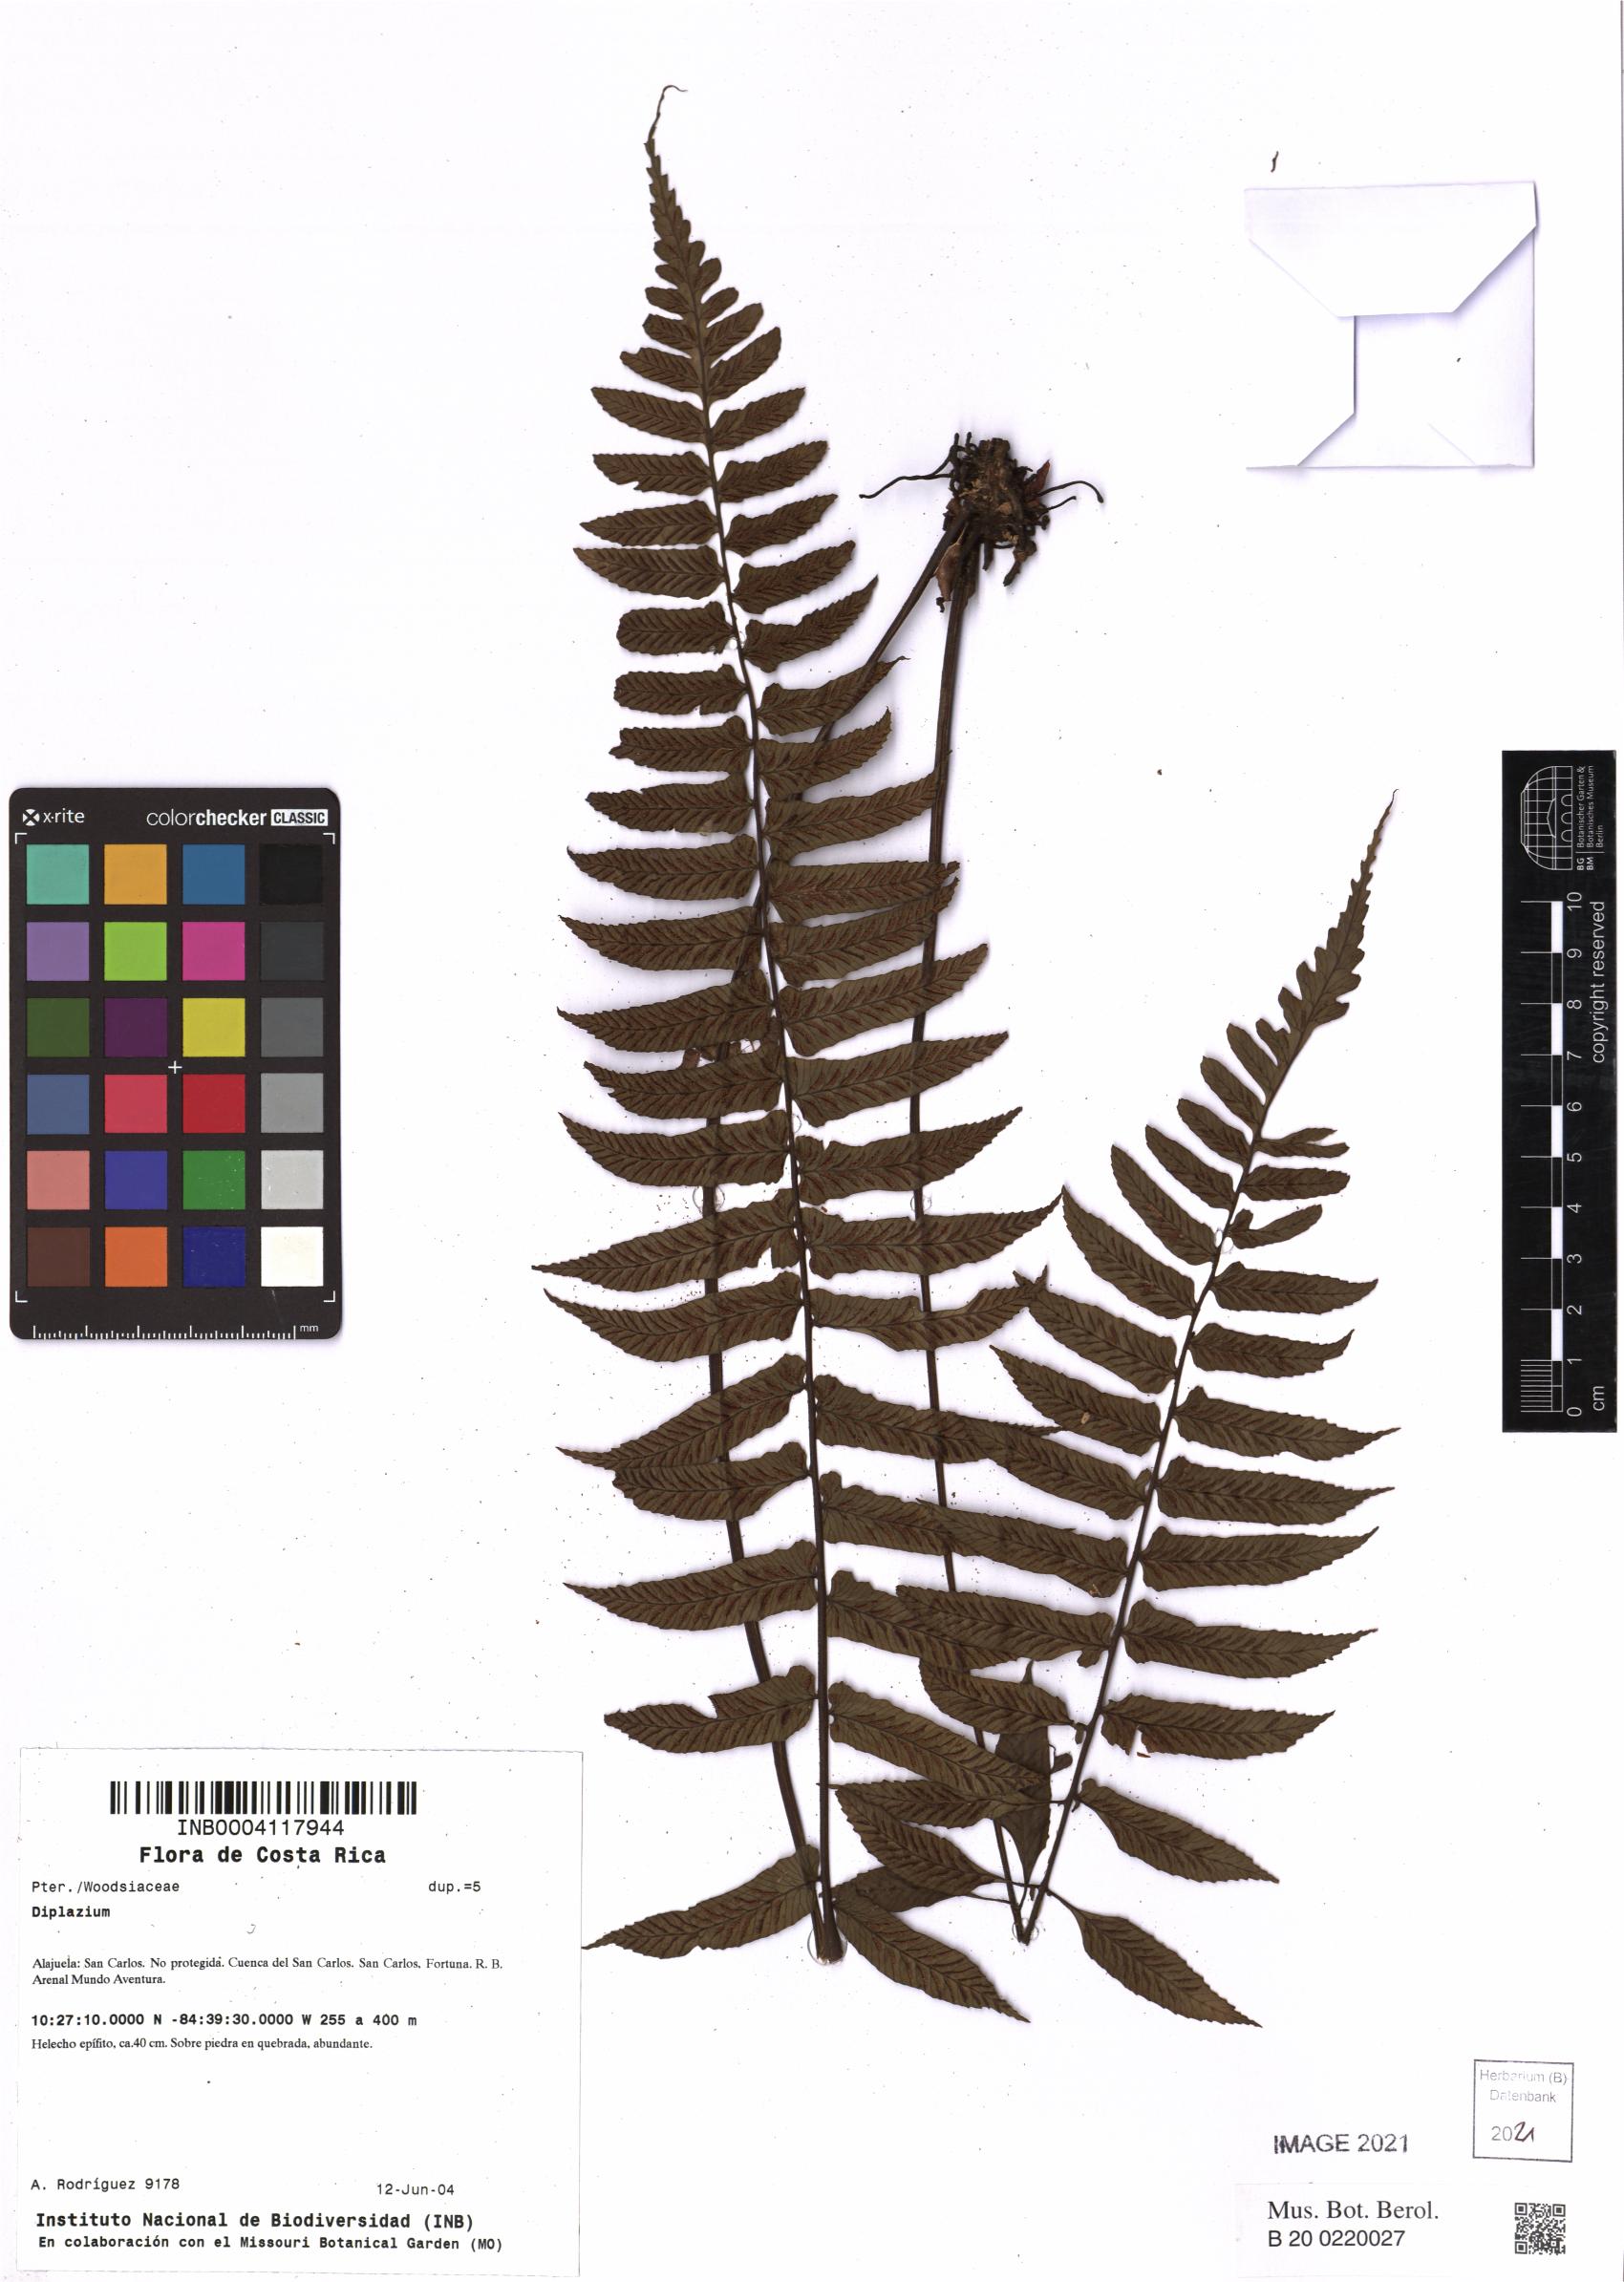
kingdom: Plantae
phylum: Tracheophyta
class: Polypodiopsida
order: Polypodiales
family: Athyriaceae
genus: Diplazium
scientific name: Diplazium
